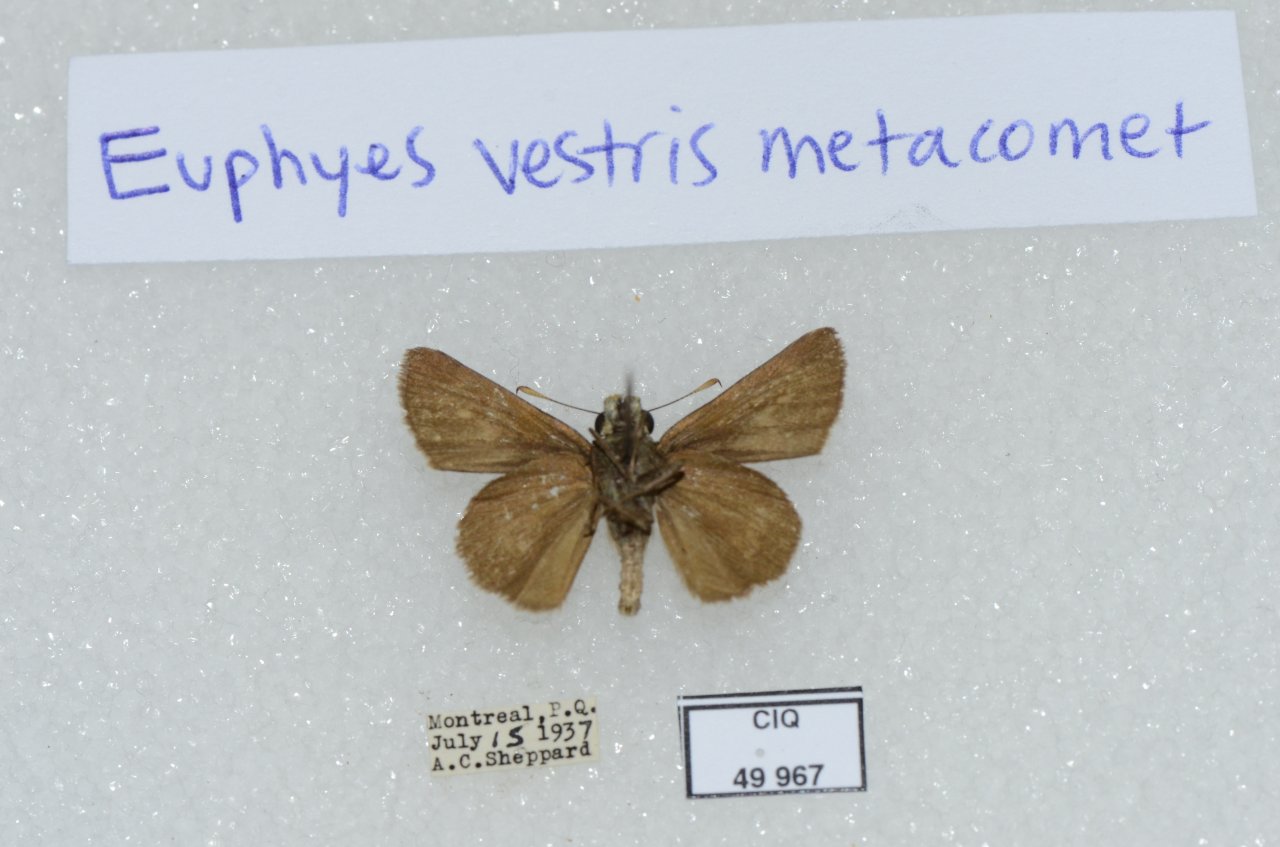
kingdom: Animalia
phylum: Arthropoda
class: Insecta
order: Lepidoptera
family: Hesperiidae
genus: Euphyes
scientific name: Euphyes vestris
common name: Dun Skipper
